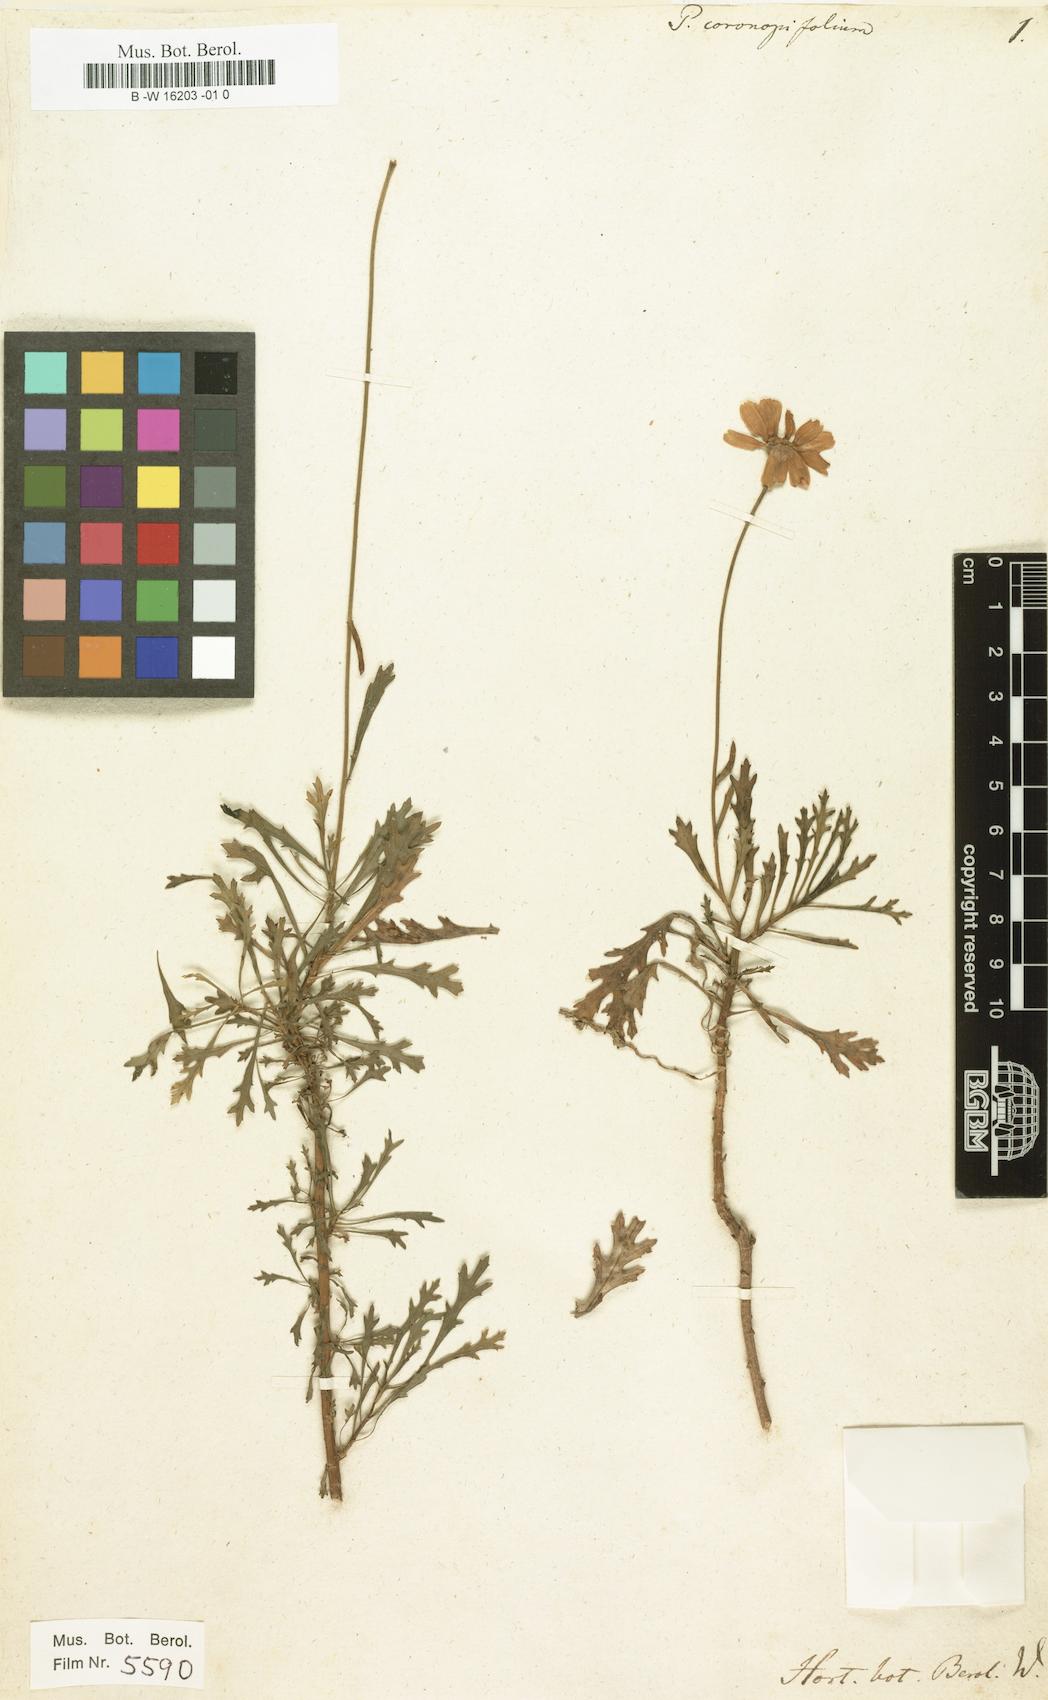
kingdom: Plantae
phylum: Tracheophyta
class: Magnoliopsida
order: Asterales
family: Asteraceae
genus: Argyranthemum
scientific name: Argyranthemum coronopifolium
